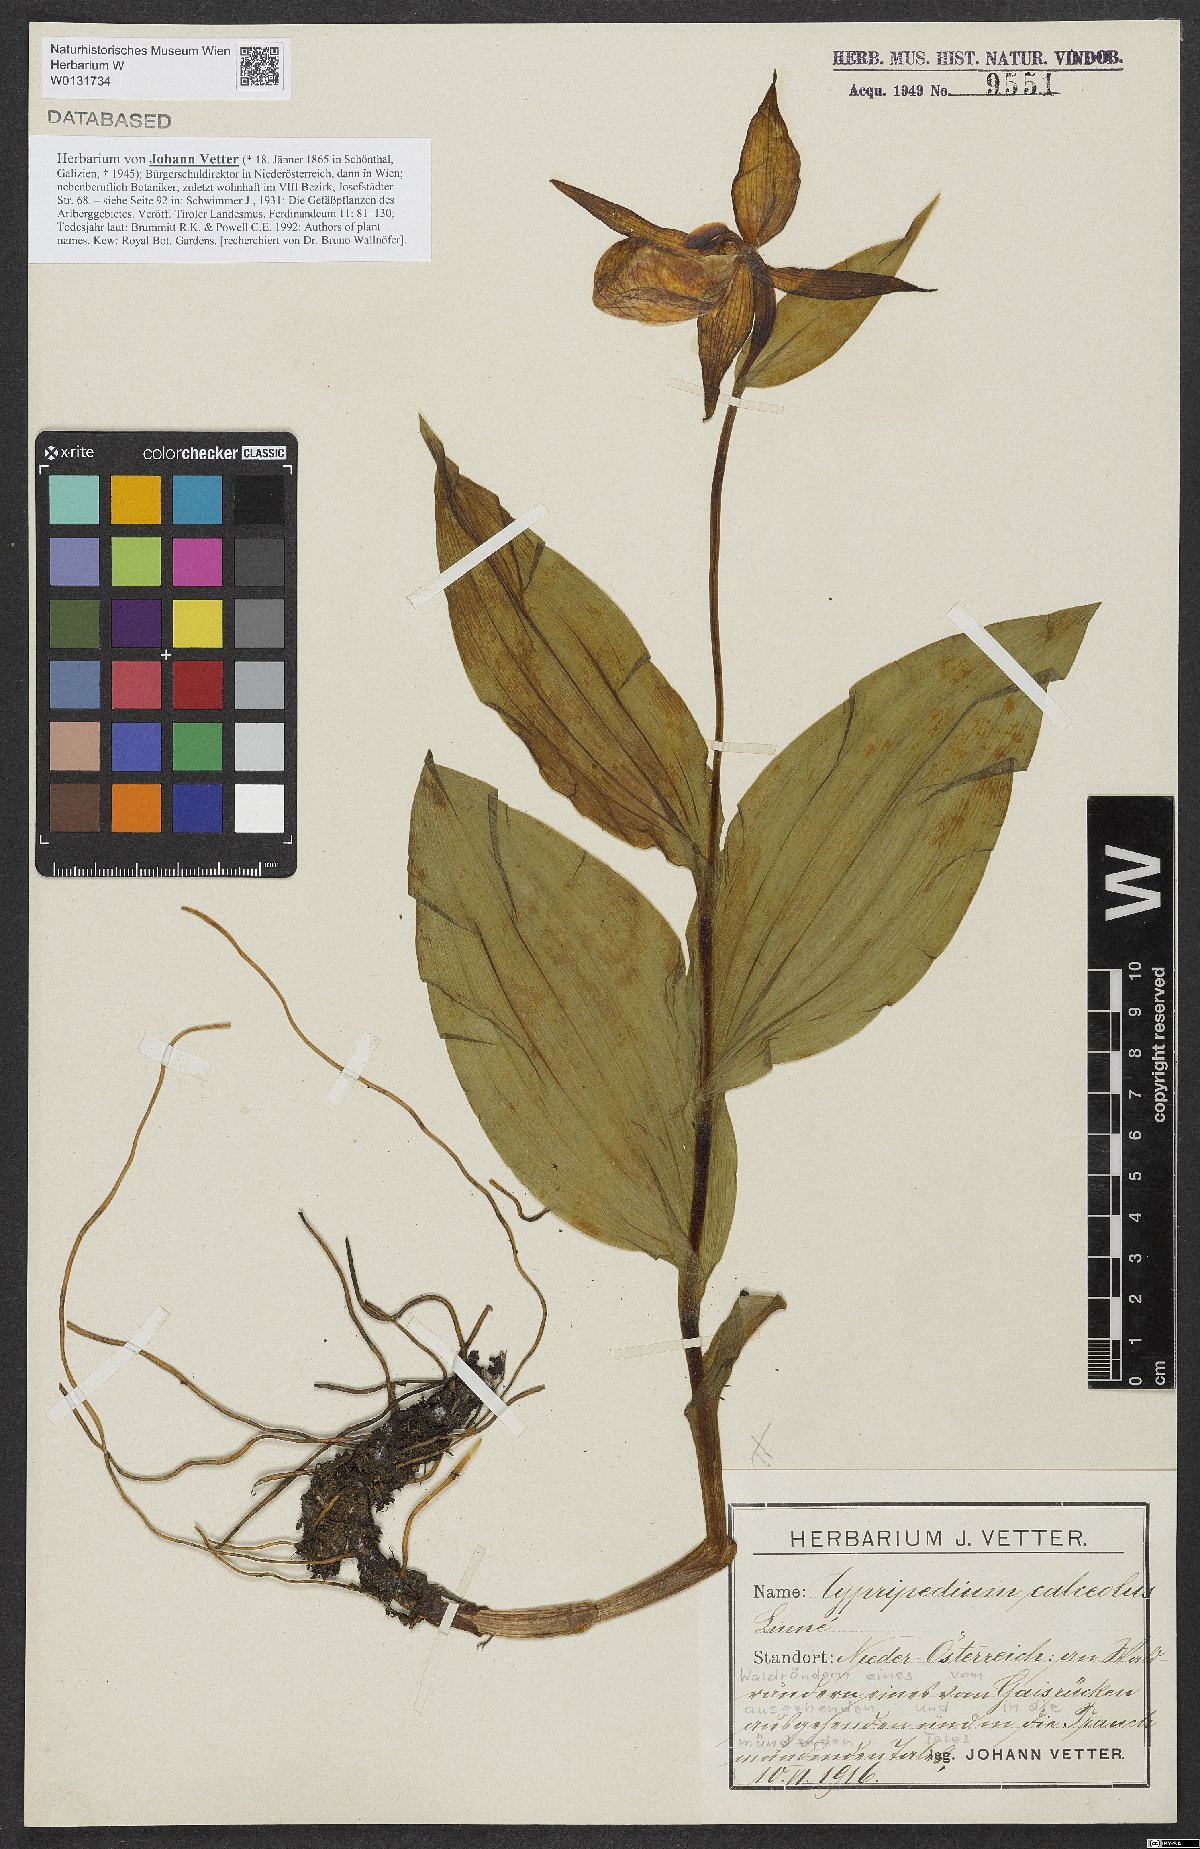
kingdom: Plantae
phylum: Tracheophyta
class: Liliopsida
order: Asparagales
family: Orchidaceae
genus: Cypripedium
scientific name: Cypripedium calceolus
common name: Lady's-slipper
